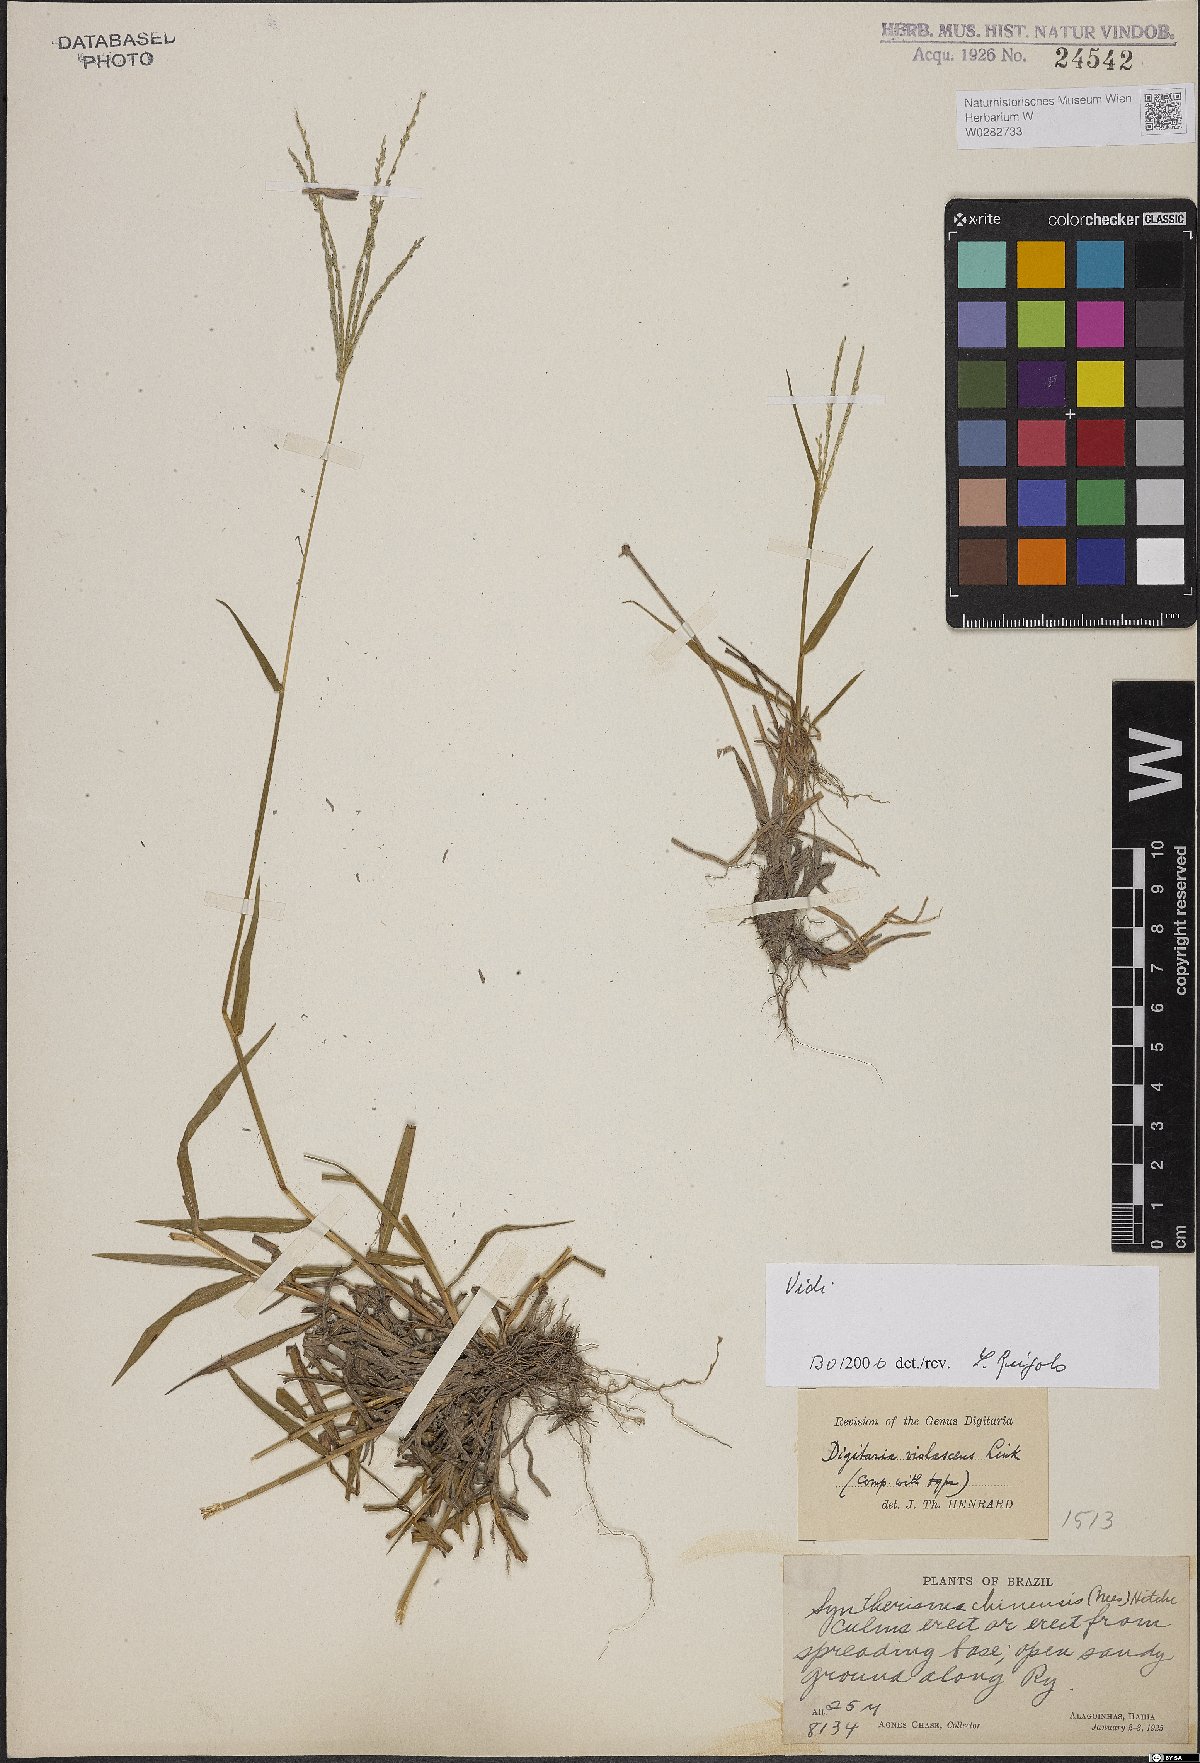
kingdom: Plantae
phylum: Tracheophyta
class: Liliopsida
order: Poales
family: Poaceae
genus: Digitaria
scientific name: Digitaria violascens
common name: Violet crabgrass
